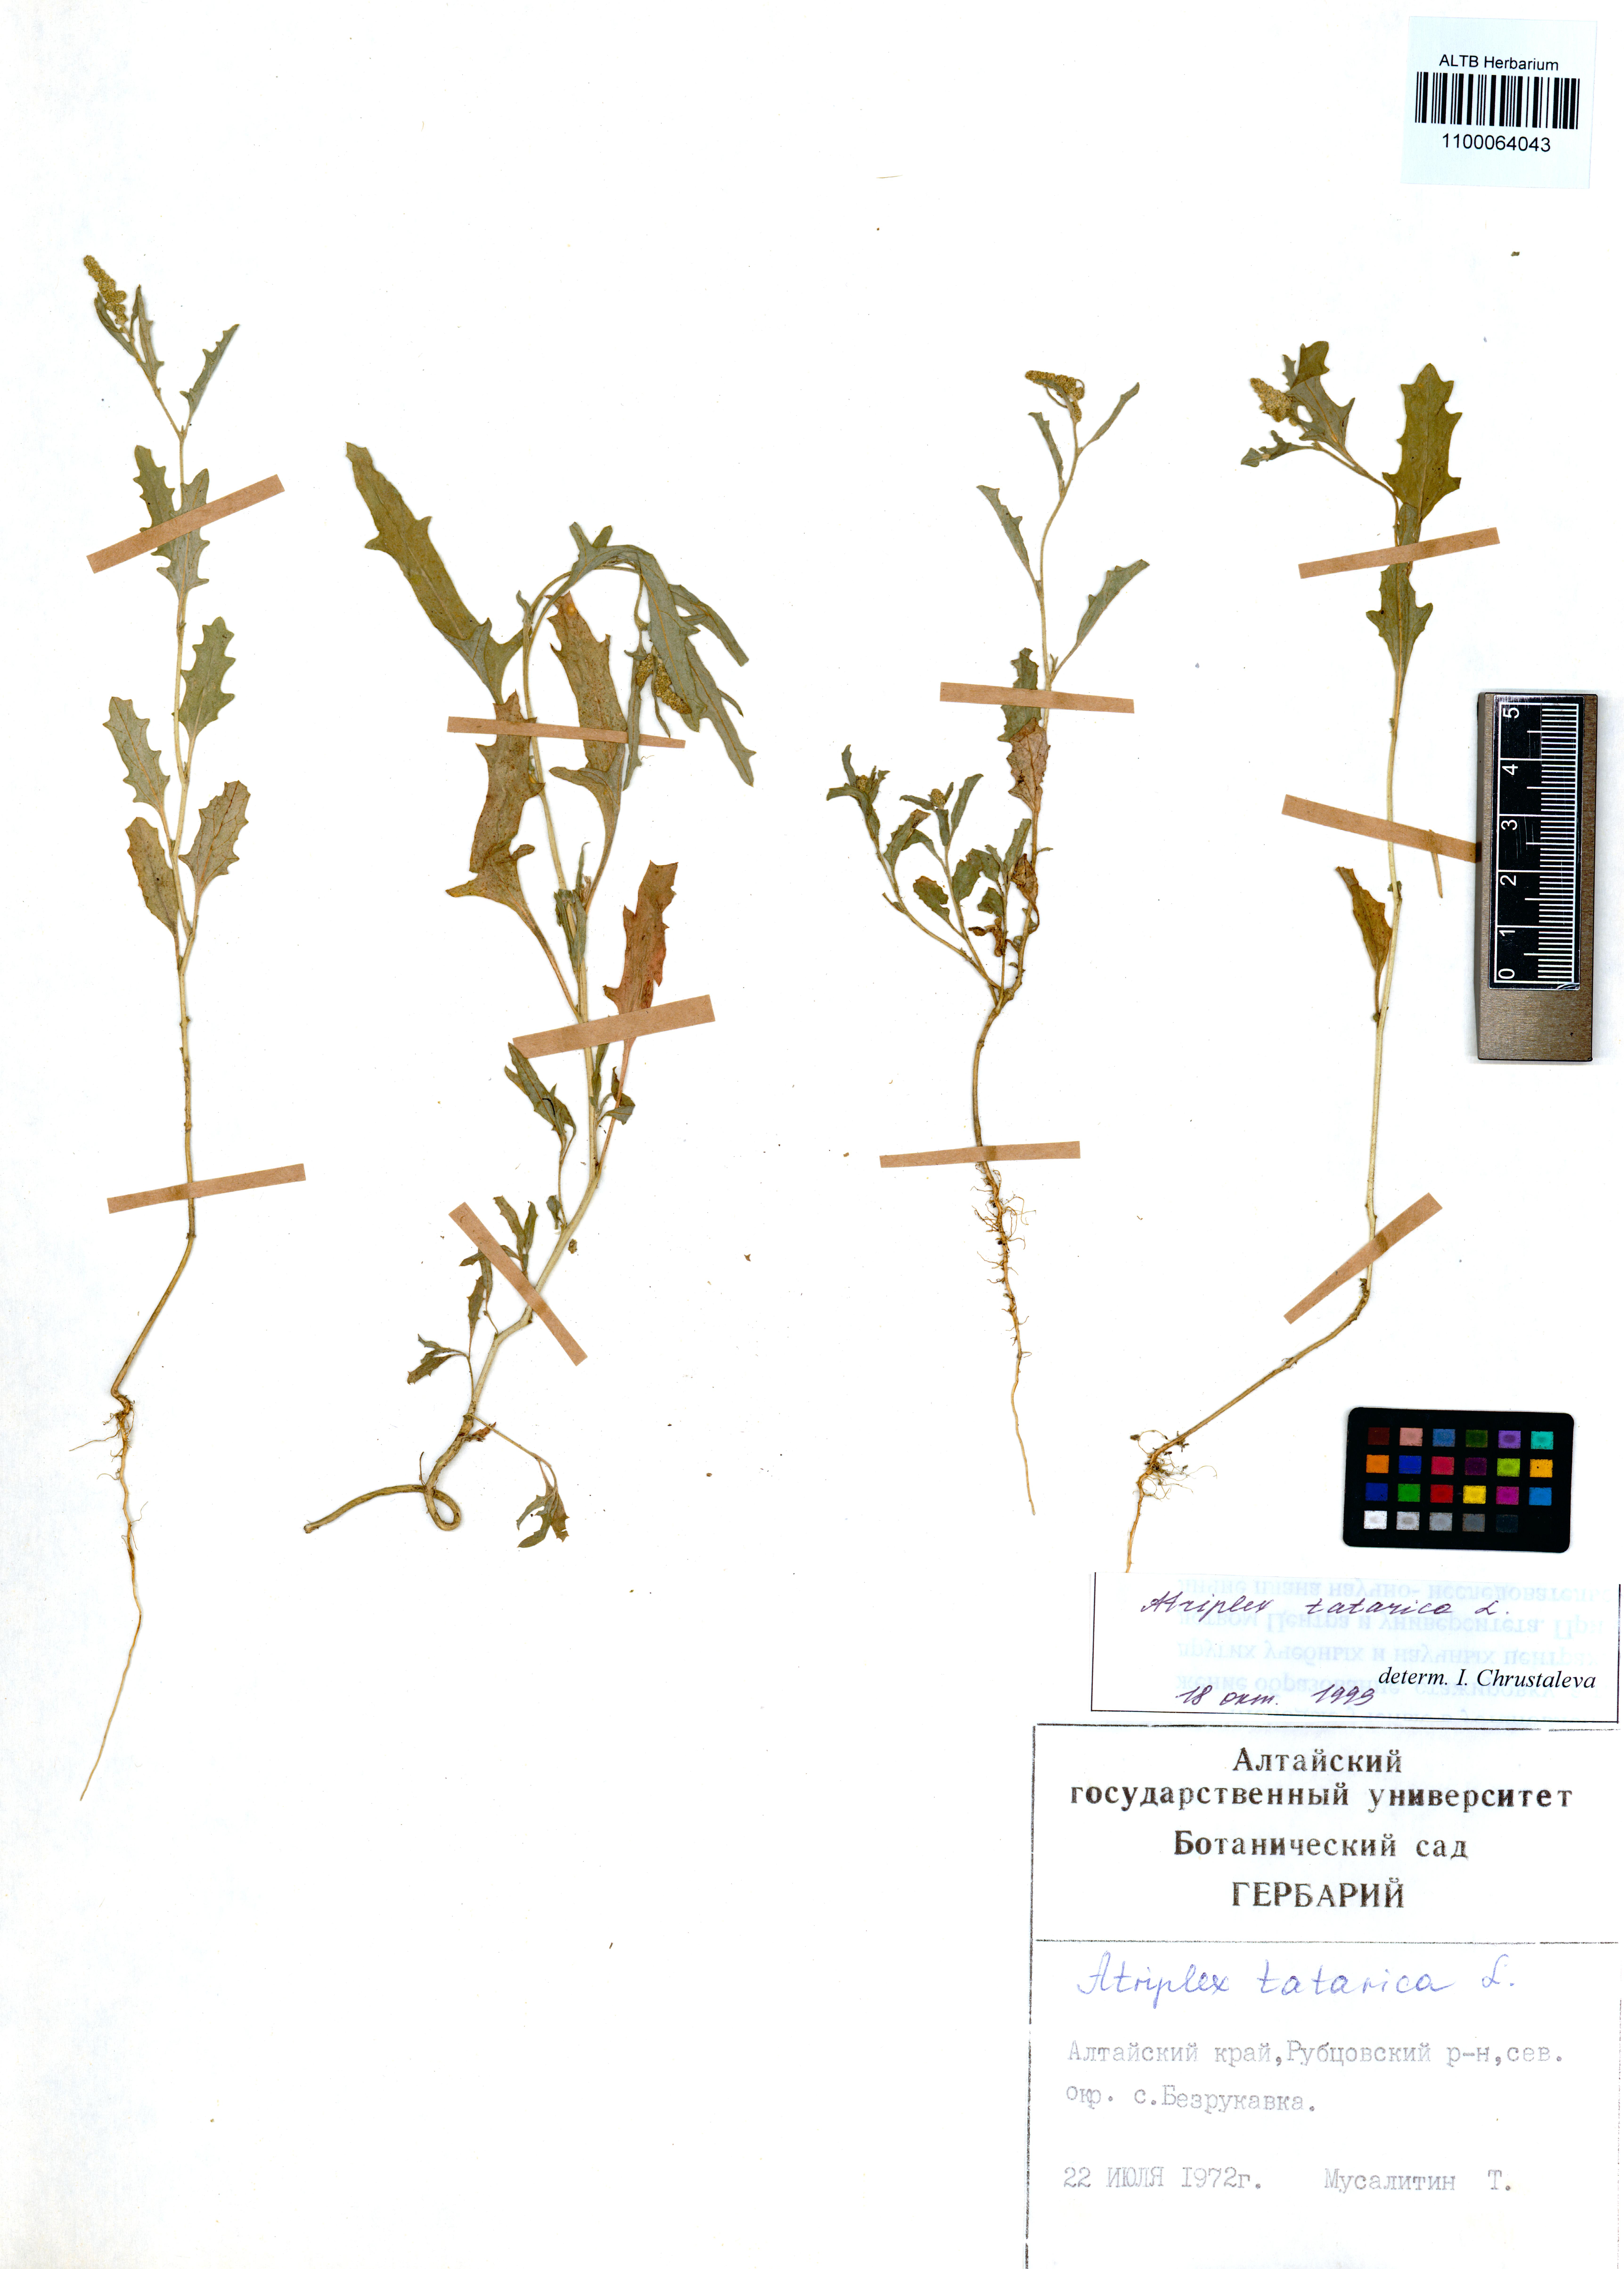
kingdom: Plantae
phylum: Tracheophyta
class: Magnoliopsida
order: Caryophyllales
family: Amaranthaceae
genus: Atriplex
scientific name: Atriplex tatarica
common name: Tatarian orache
